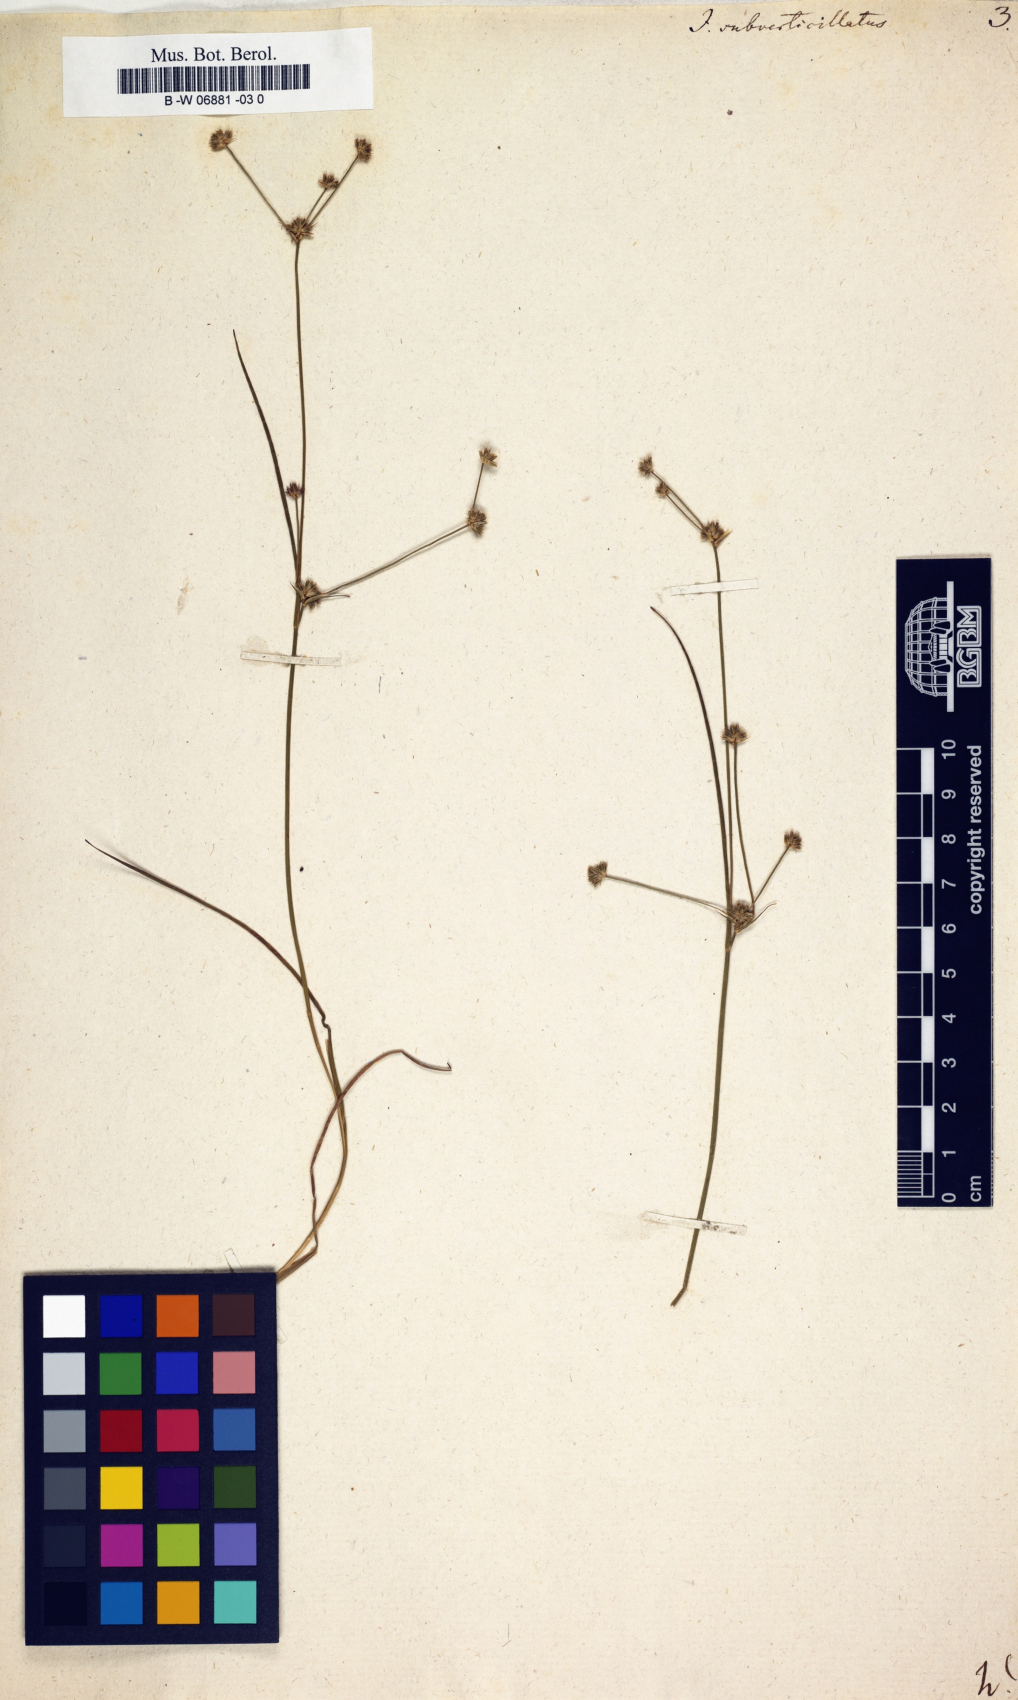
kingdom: Plantae
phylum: Tracheophyta
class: Liliopsida
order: Poales
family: Juncaceae
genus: Juncus
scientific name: Juncus subverticillatus
